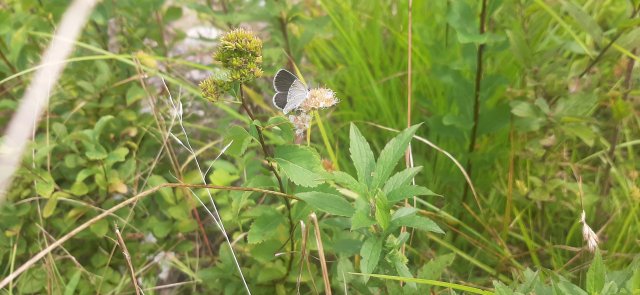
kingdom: Animalia
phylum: Arthropoda
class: Insecta
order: Lepidoptera
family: Lycaenidae
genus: Elkalyce
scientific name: Elkalyce comyntas
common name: Eastern Tailed-Blue
